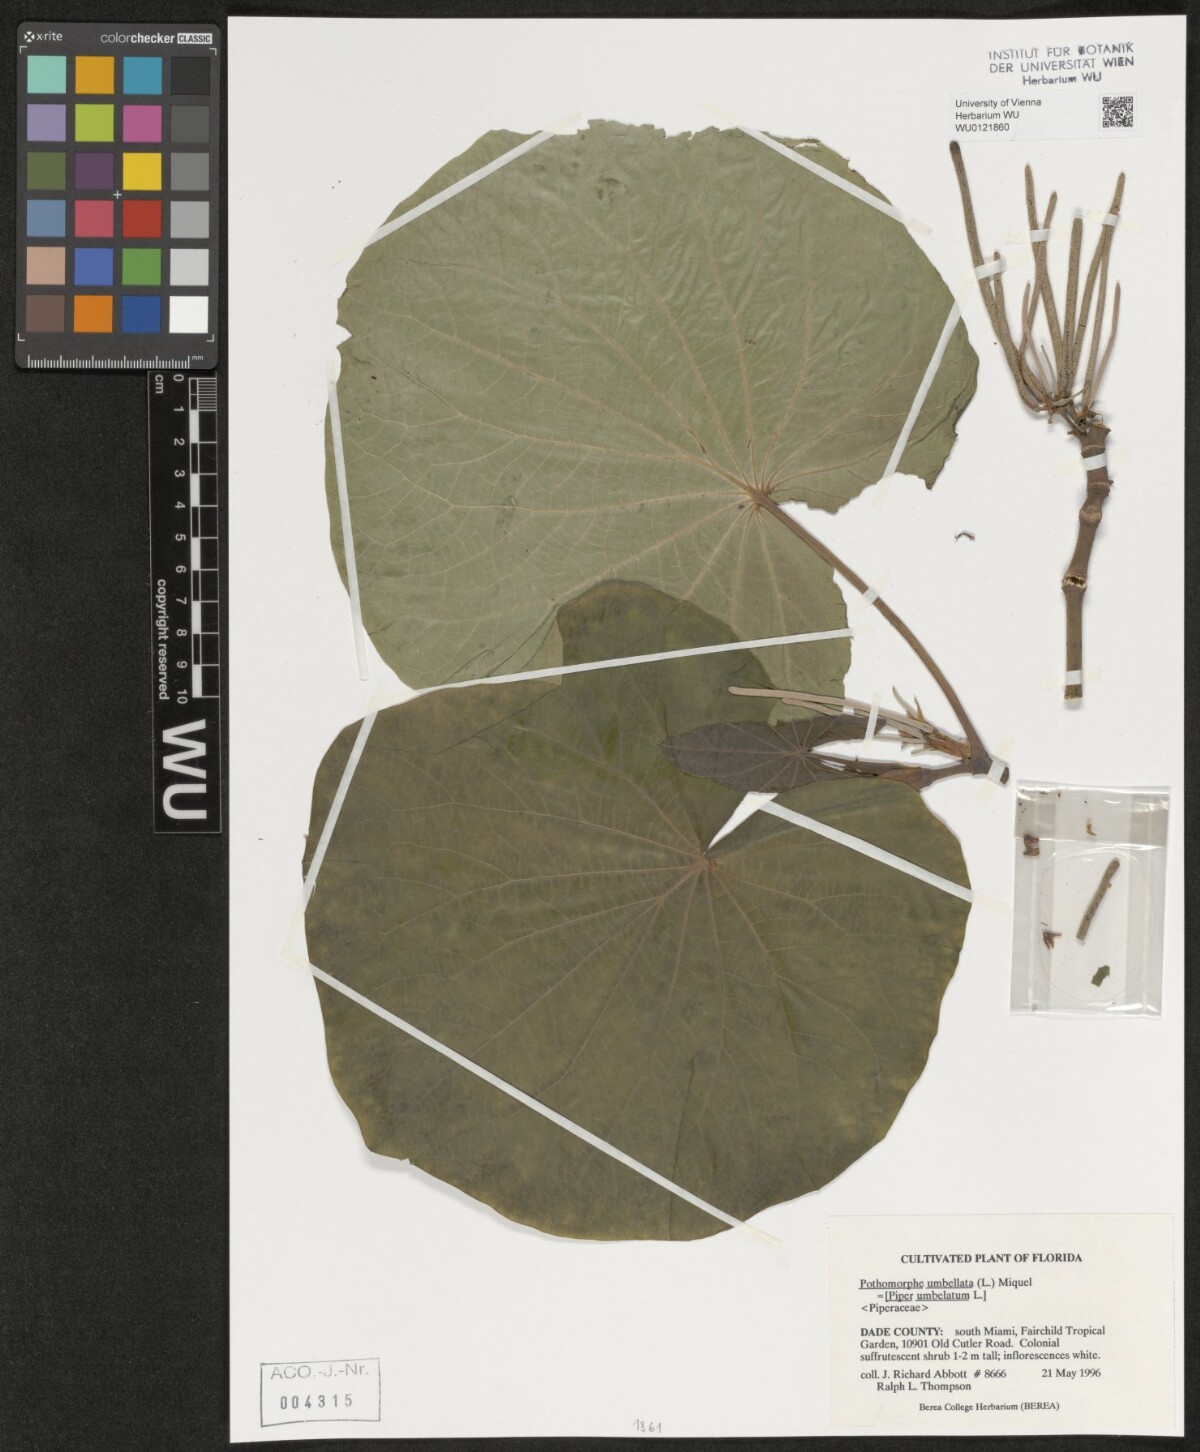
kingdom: Plantae
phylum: Tracheophyta
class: Magnoliopsida
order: Piperales
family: Piperaceae
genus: Piper
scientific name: Piper umbellatum
